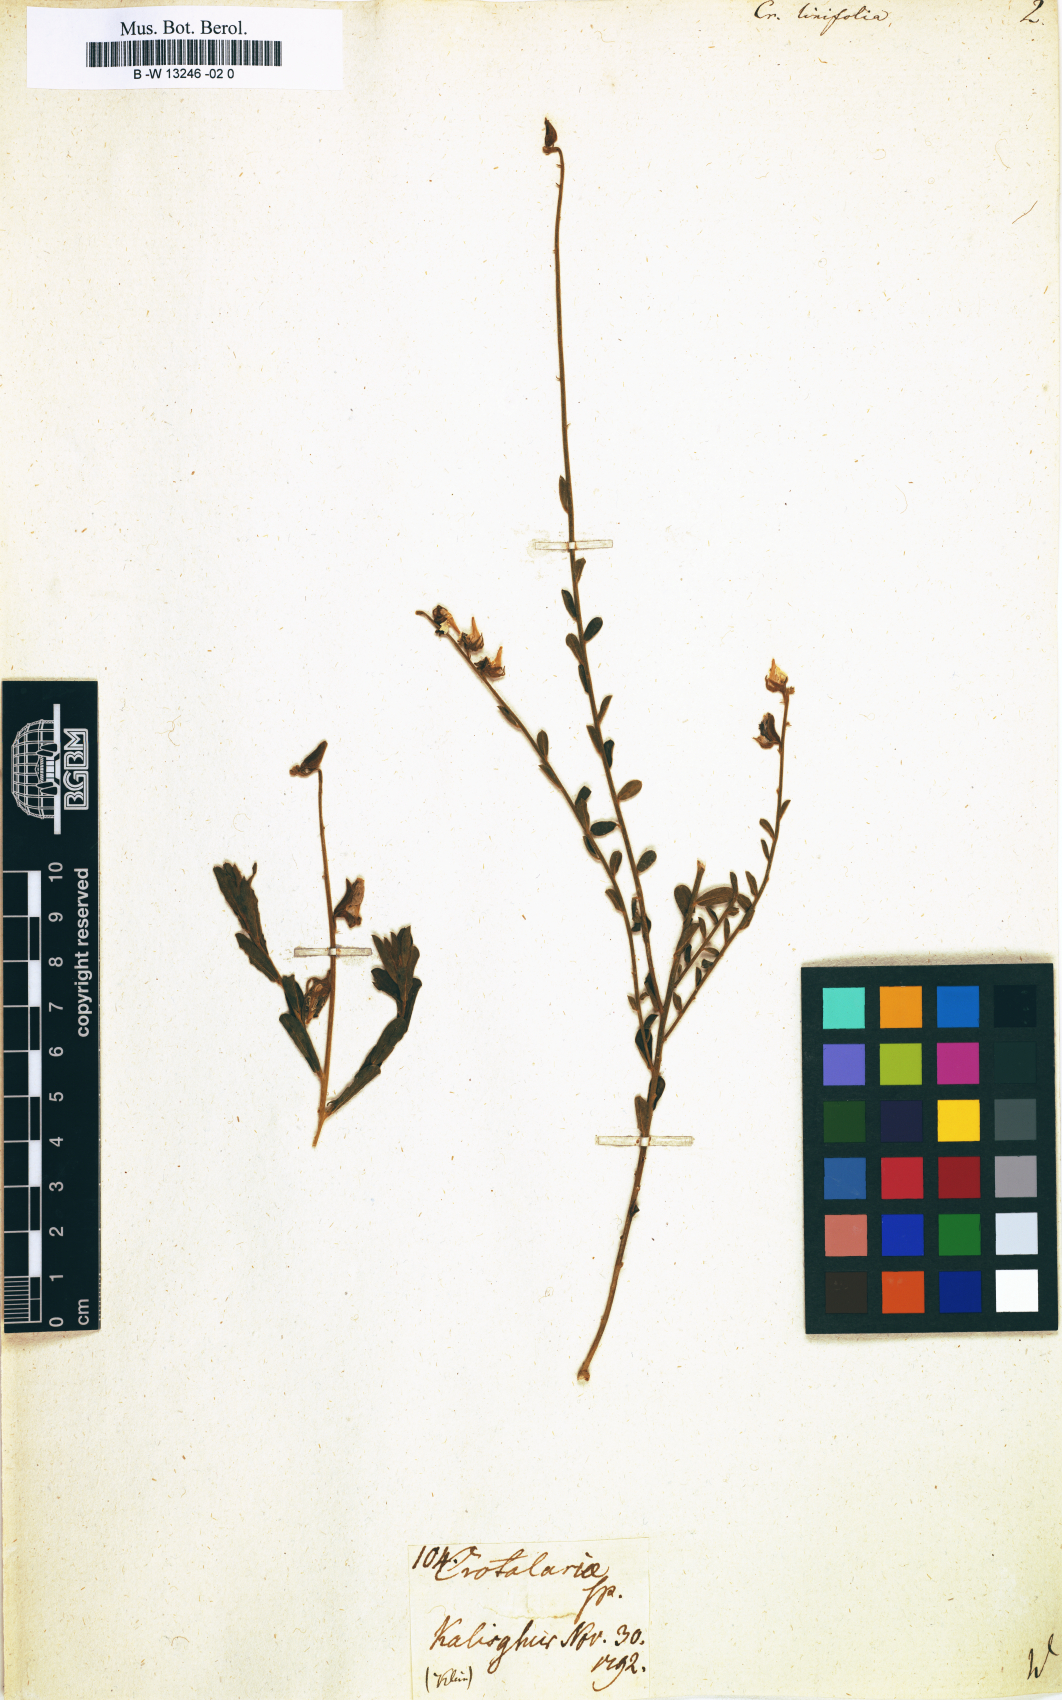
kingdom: Plantae
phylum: Tracheophyta
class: Magnoliopsida
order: Fabales
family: Fabaceae
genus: Crotalaria
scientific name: Crotalaria linifolia
